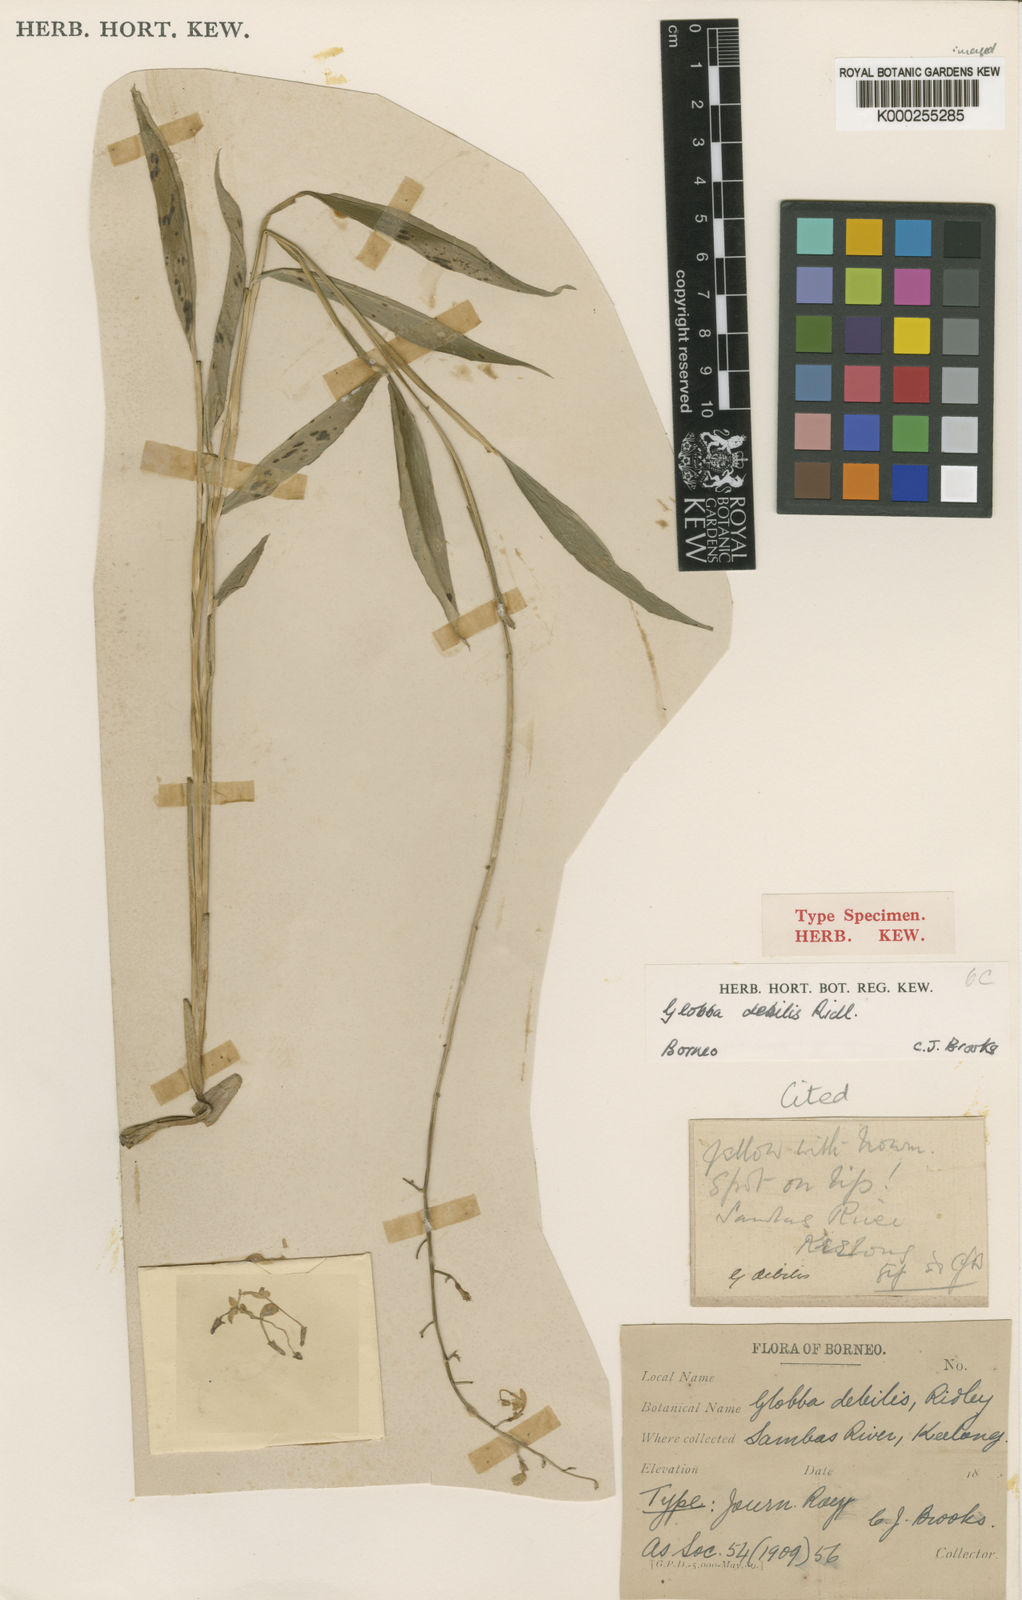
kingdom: Plantae
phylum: Tracheophyta
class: Liliopsida
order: Zingiberales
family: Zingiberaceae
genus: Globba
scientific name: Globba pendula
